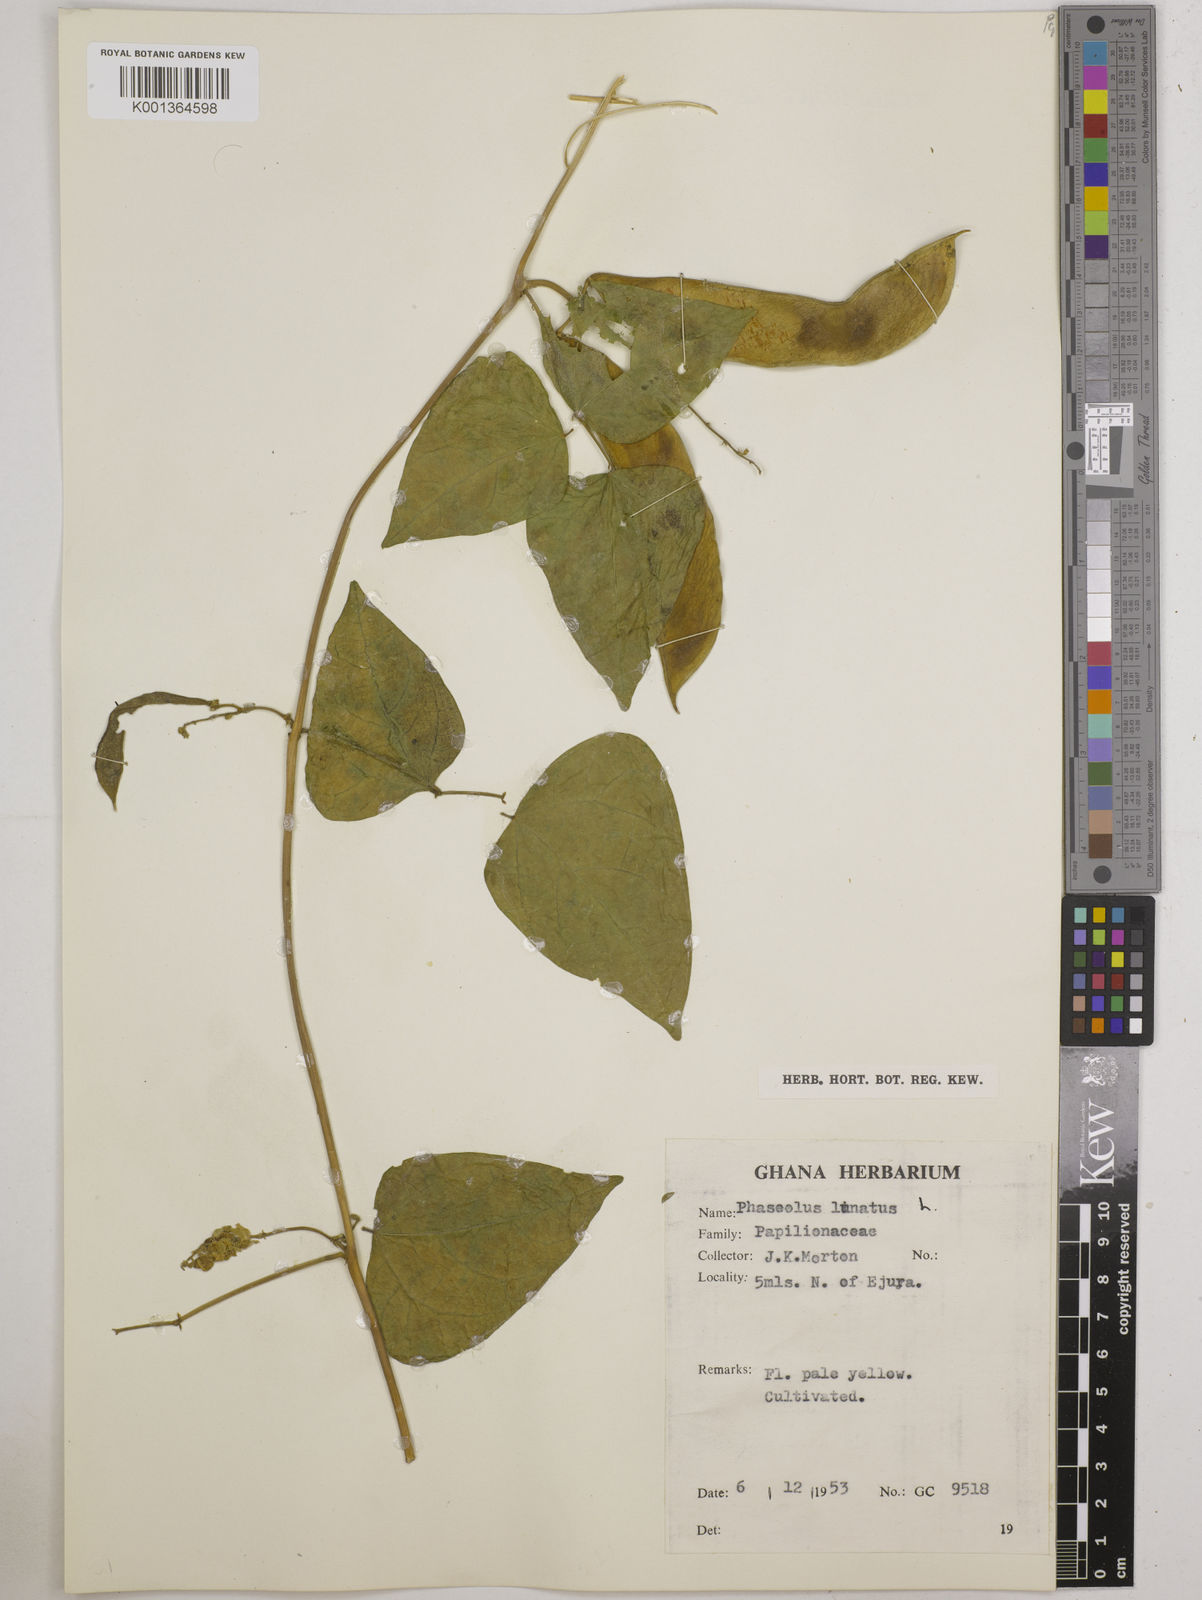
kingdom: Plantae
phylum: Tracheophyta
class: Magnoliopsida
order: Fabales
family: Fabaceae
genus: Phaseolus
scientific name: Phaseolus lunatus
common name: Sieva bean
